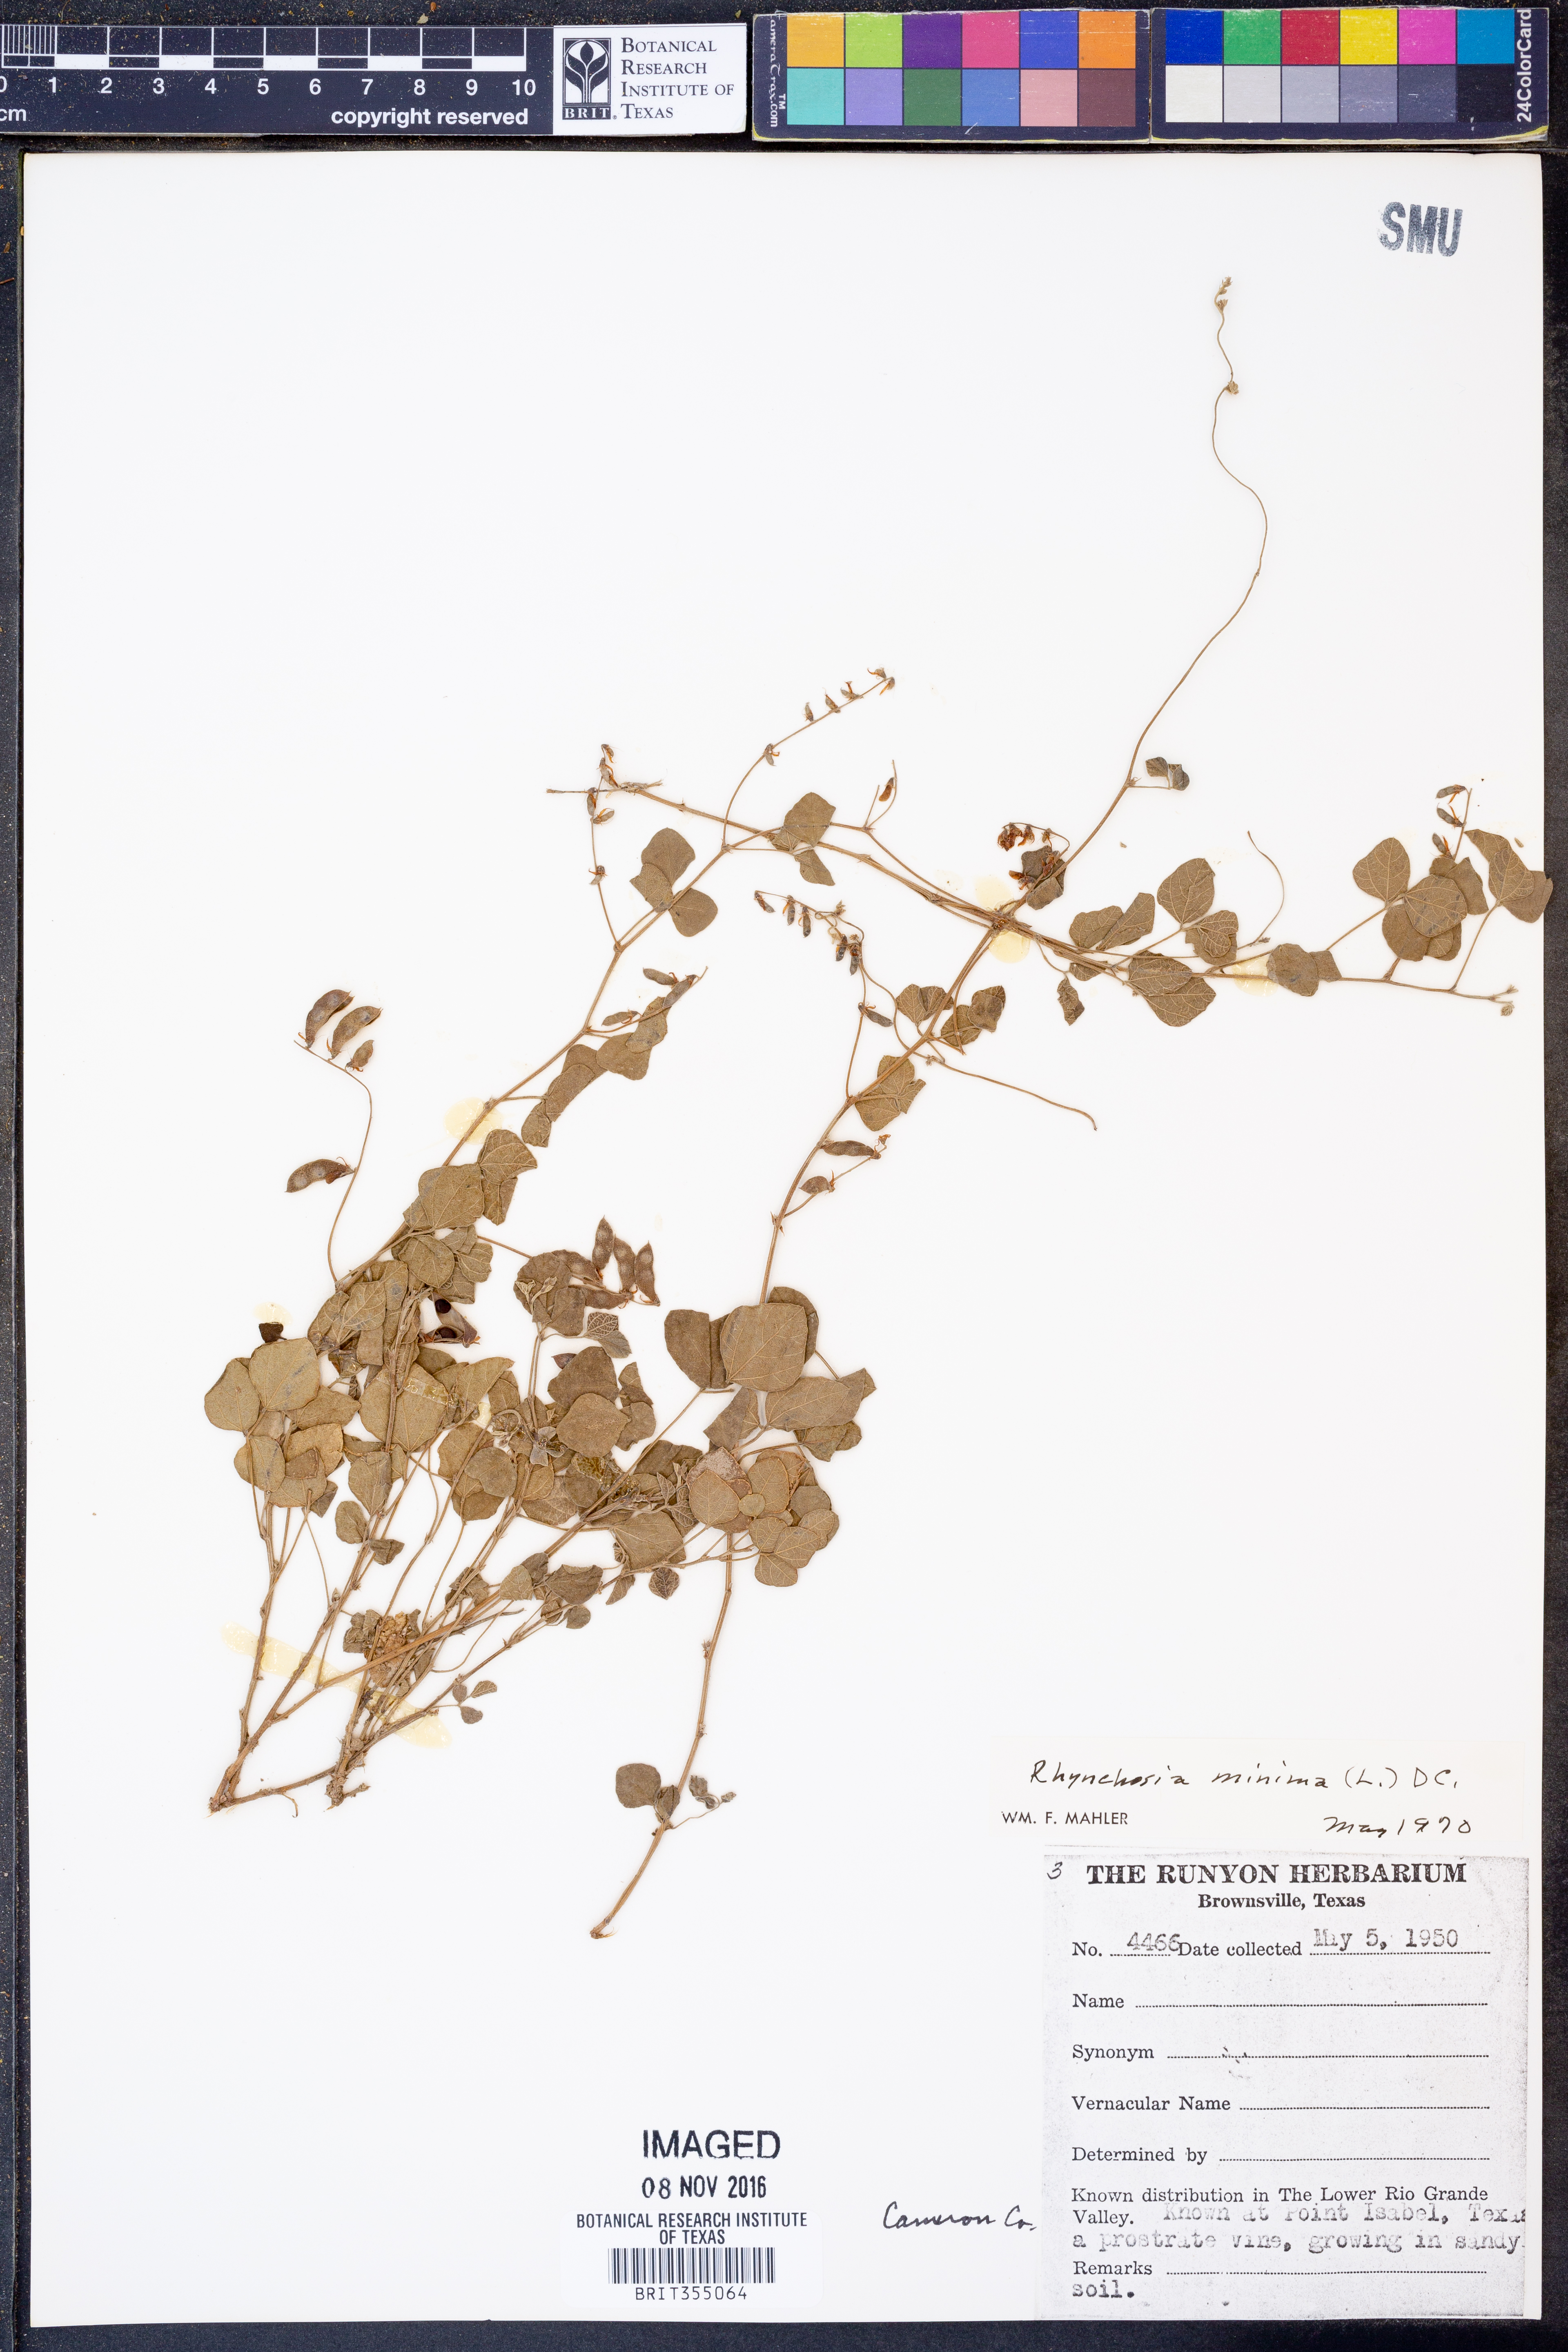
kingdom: Plantae
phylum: Tracheophyta
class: Magnoliopsida
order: Fabales
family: Fabaceae
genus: Rhynchosia
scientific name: Rhynchosia minima
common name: Least snoutbean
